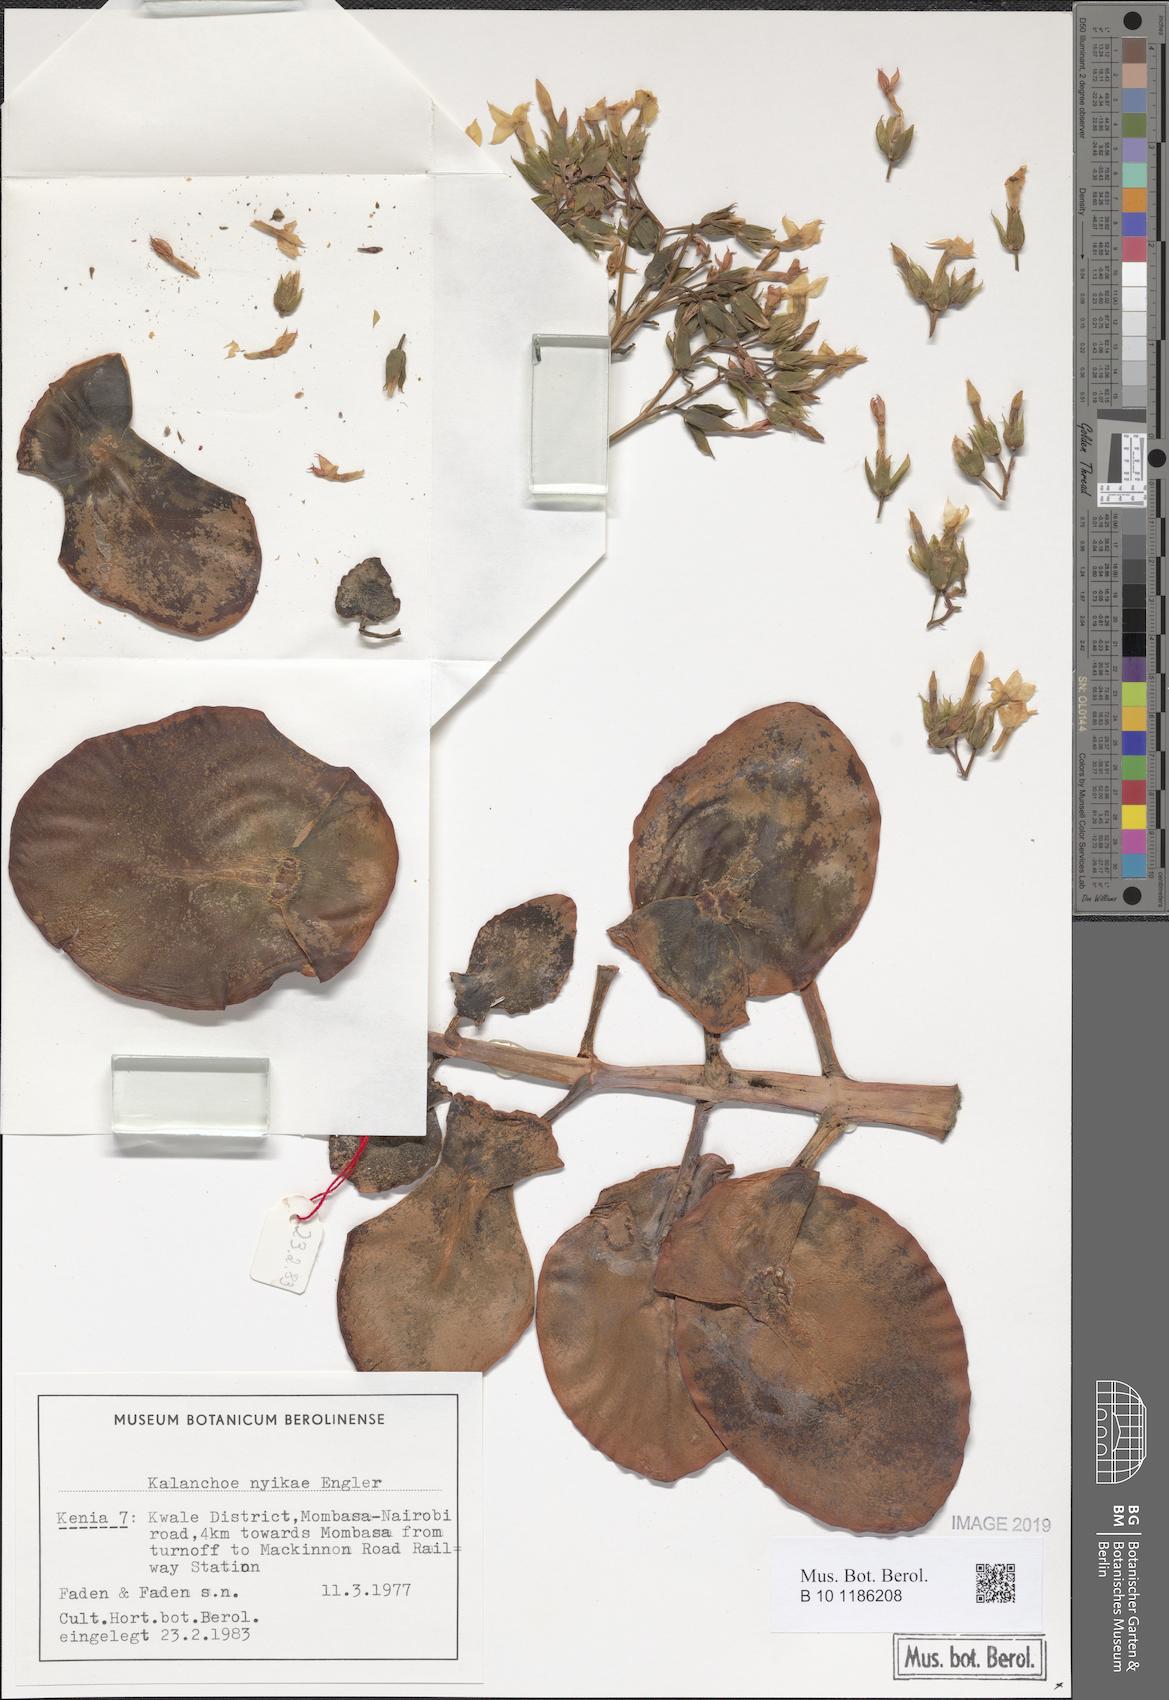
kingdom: Plantae
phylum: Tracheophyta
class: Magnoliopsida
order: Saxifragales
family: Crassulaceae
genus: Kalanchoe
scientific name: Kalanchoe nyikae
